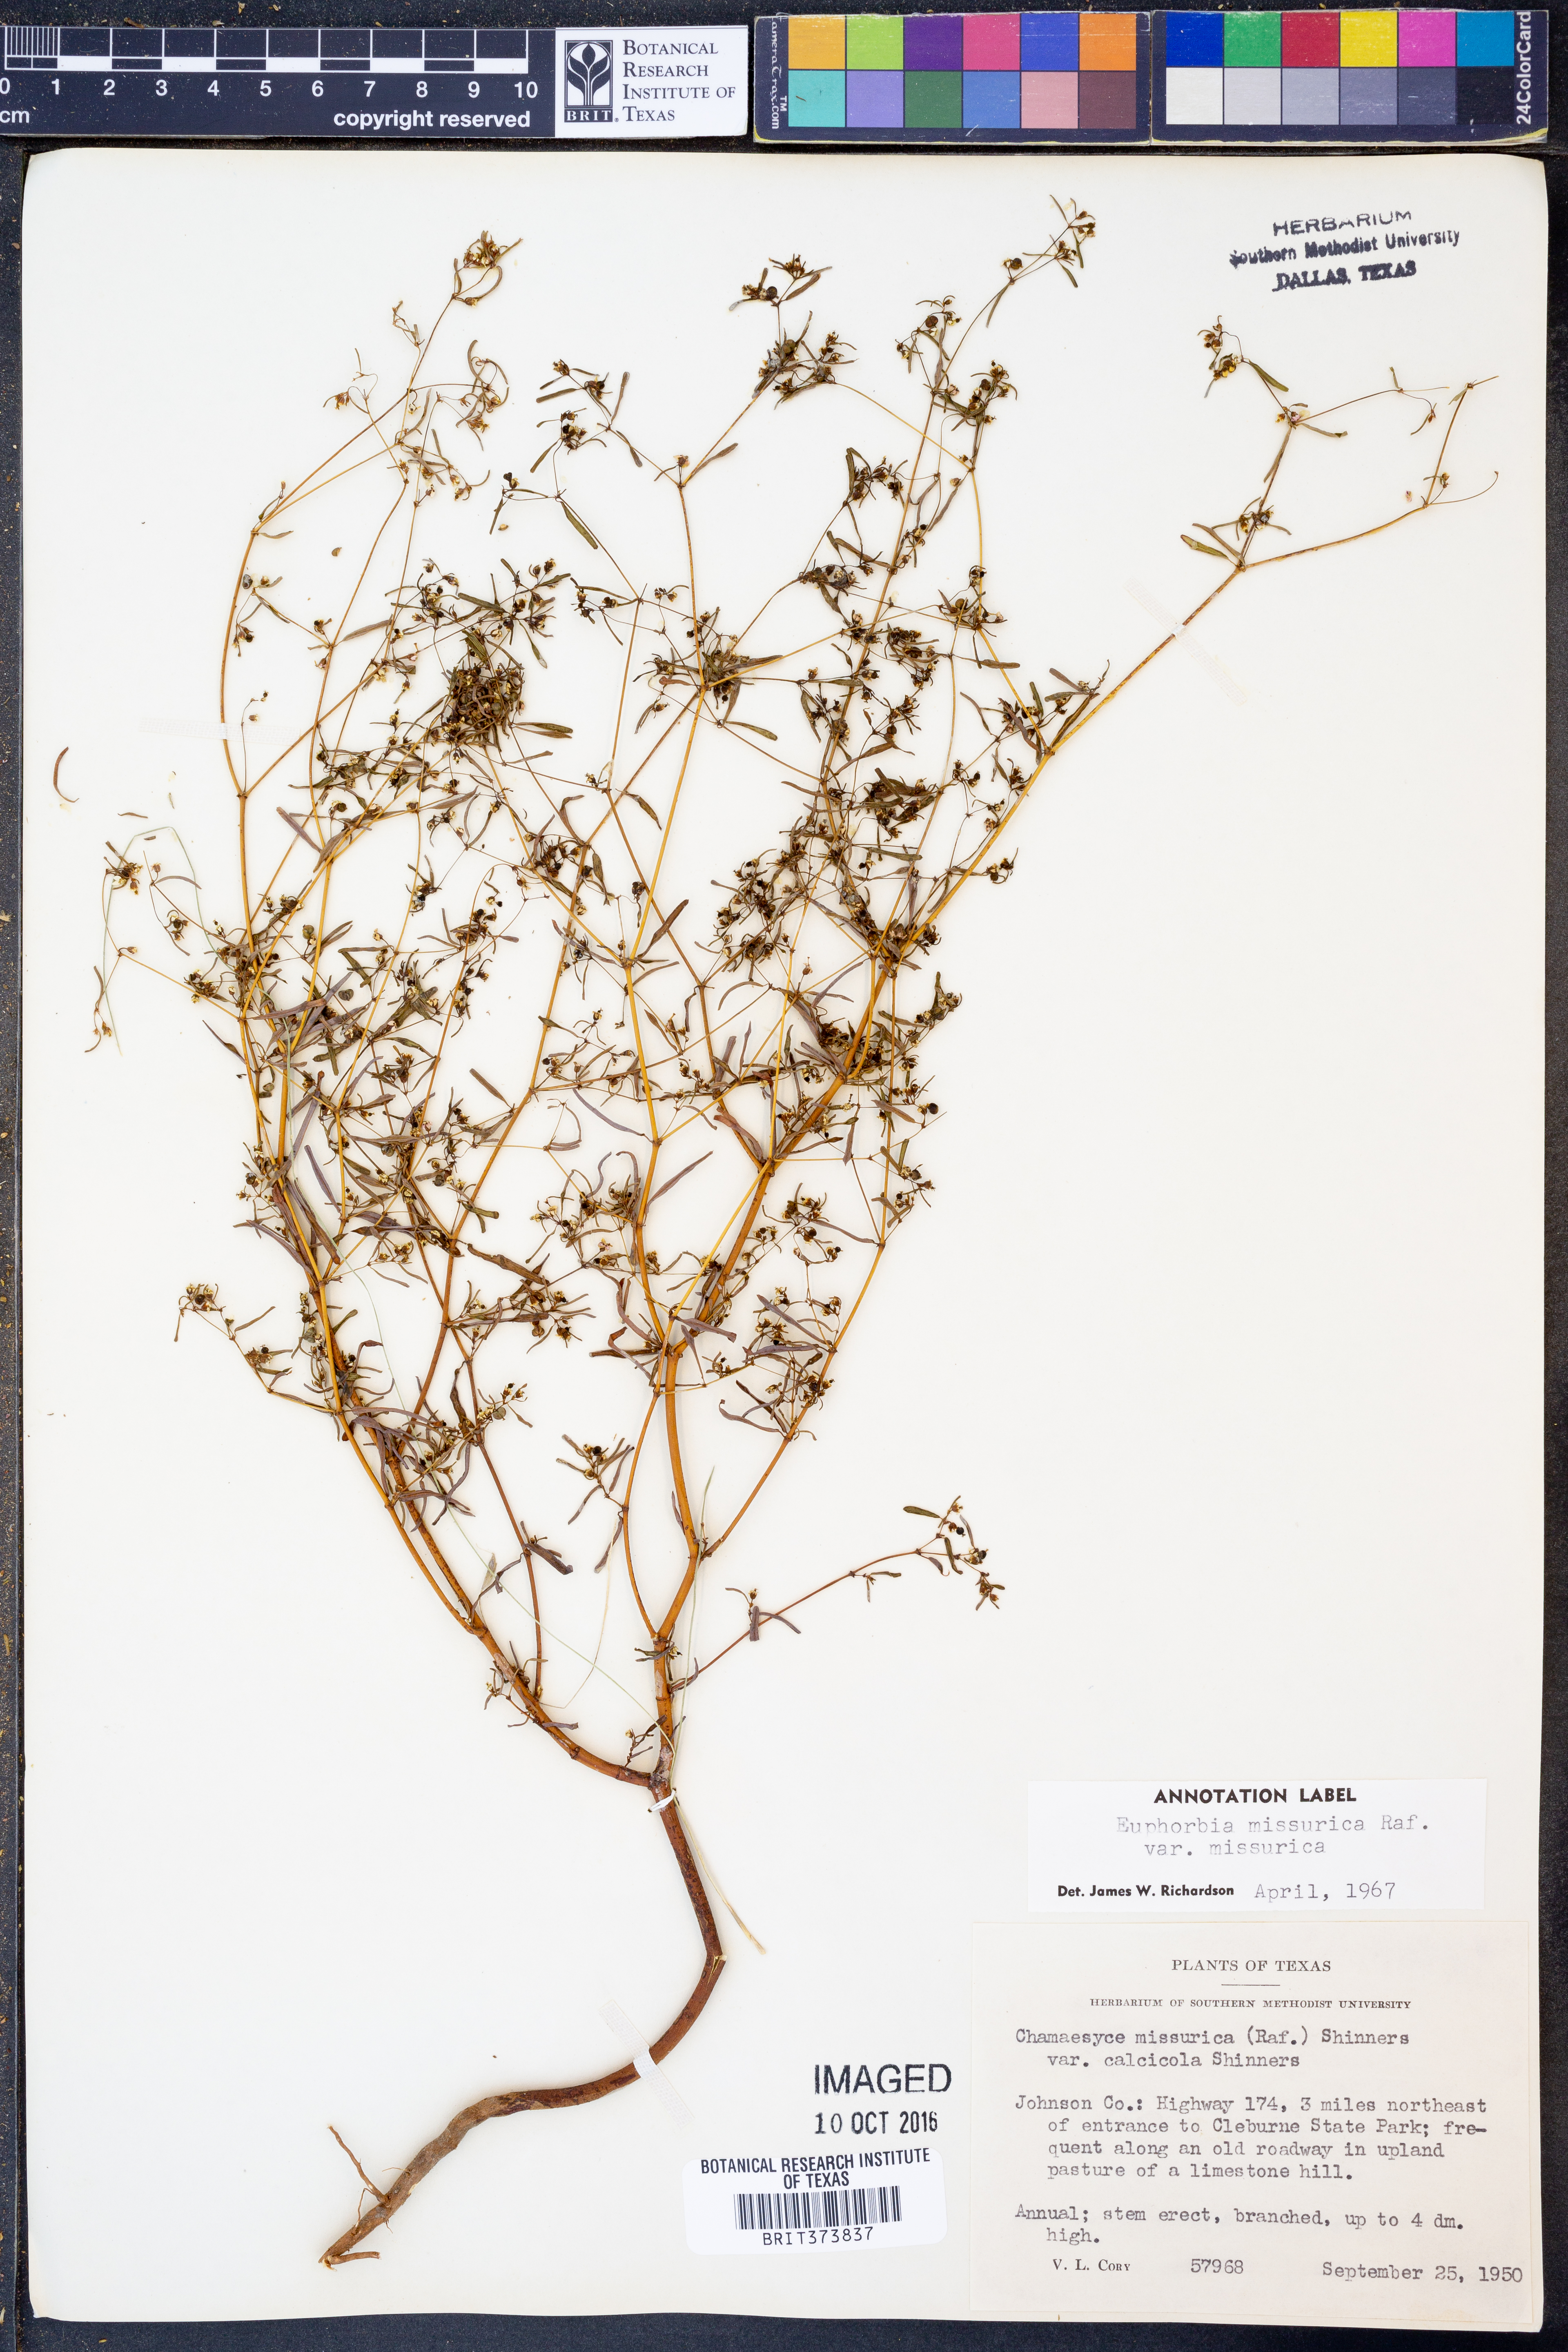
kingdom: Plantae
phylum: Tracheophyta
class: Magnoliopsida
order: Malpighiales
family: Euphorbiaceae
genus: Euphorbia
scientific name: Euphorbia missurica
